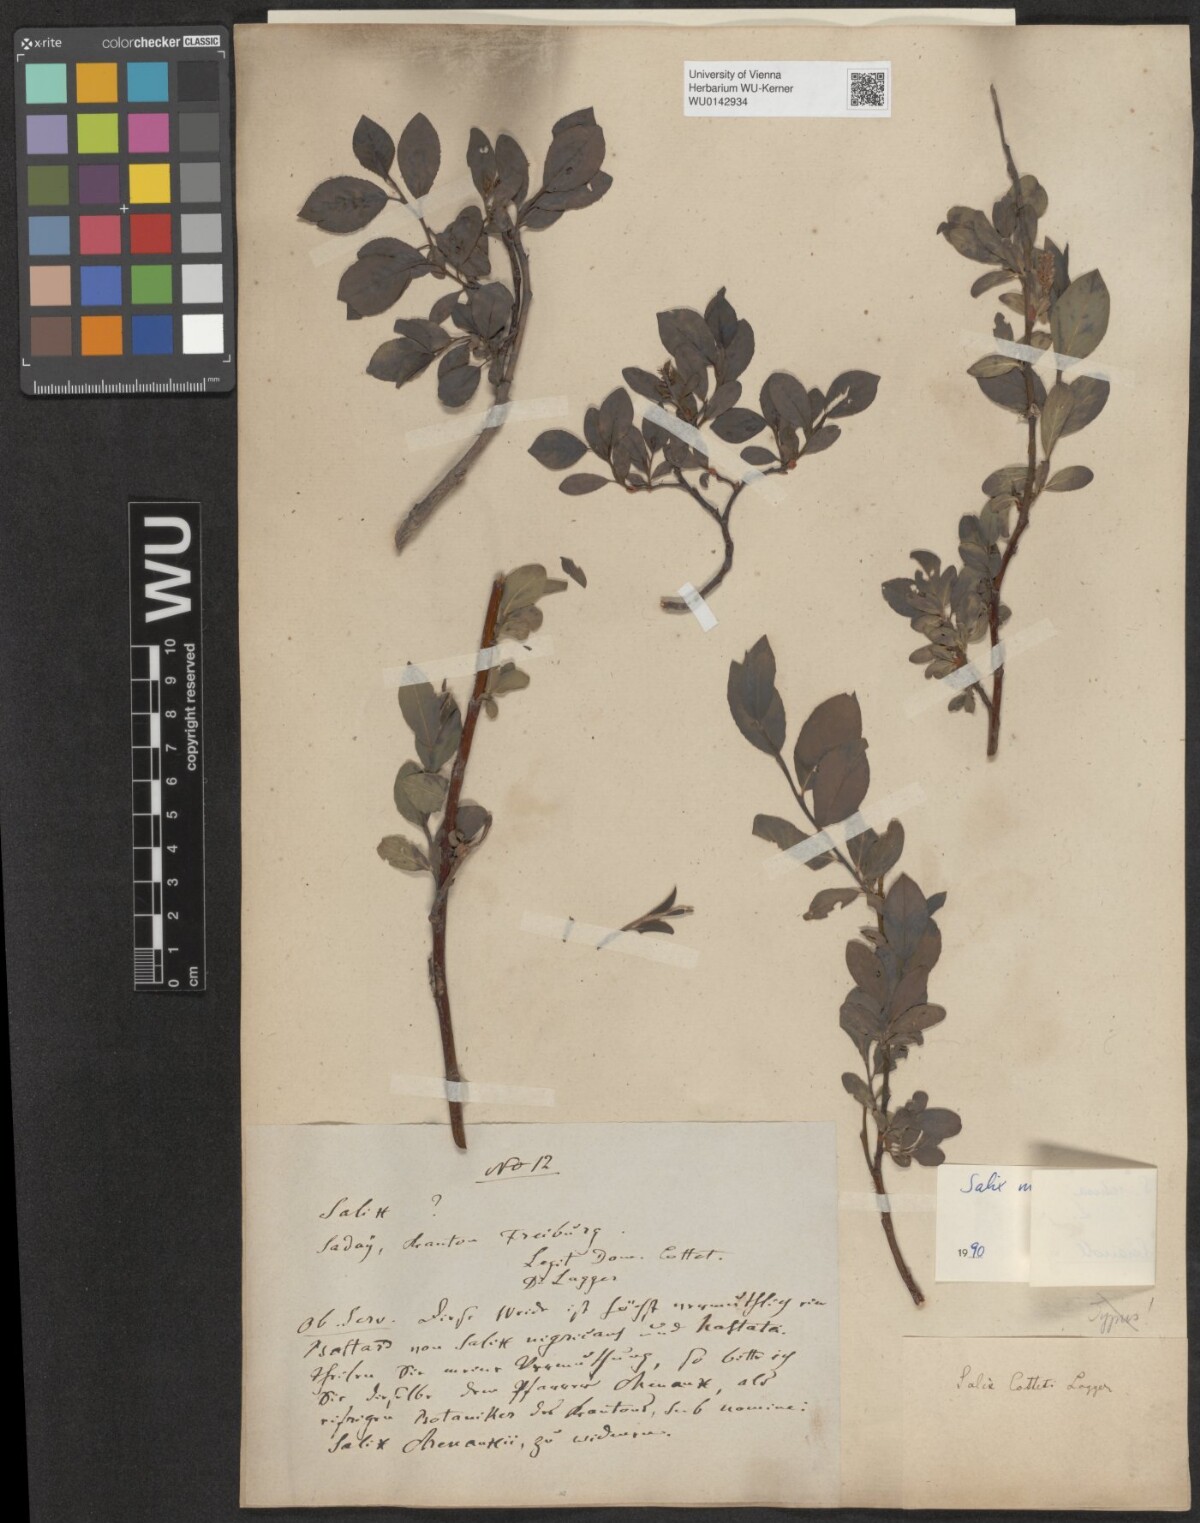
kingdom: Plantae
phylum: Tracheophyta
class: Magnoliopsida
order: Malpighiales
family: Salicaceae
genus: Salix
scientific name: Salix myrsinifolia
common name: Dark-leaved willow
